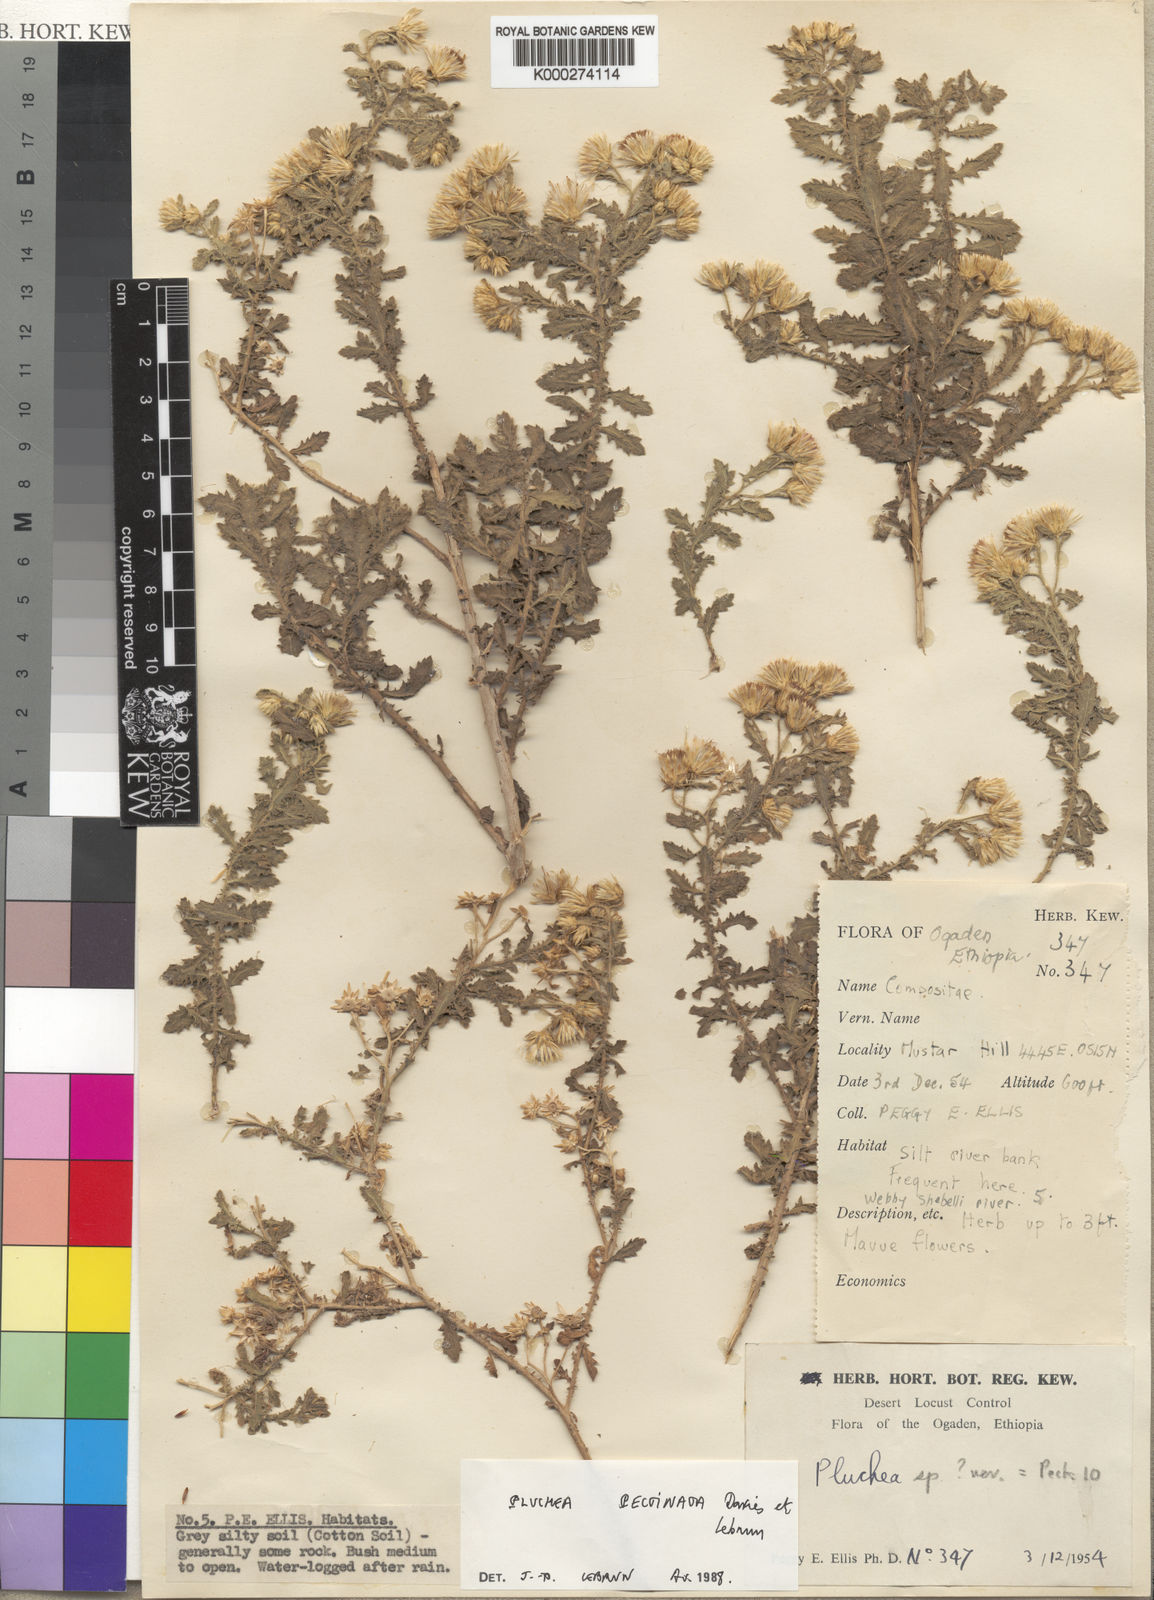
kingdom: Plantae
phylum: Tracheophyta
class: Magnoliopsida
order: Asterales
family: Asteraceae
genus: Pluchea
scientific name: Pluchea somaliensis
